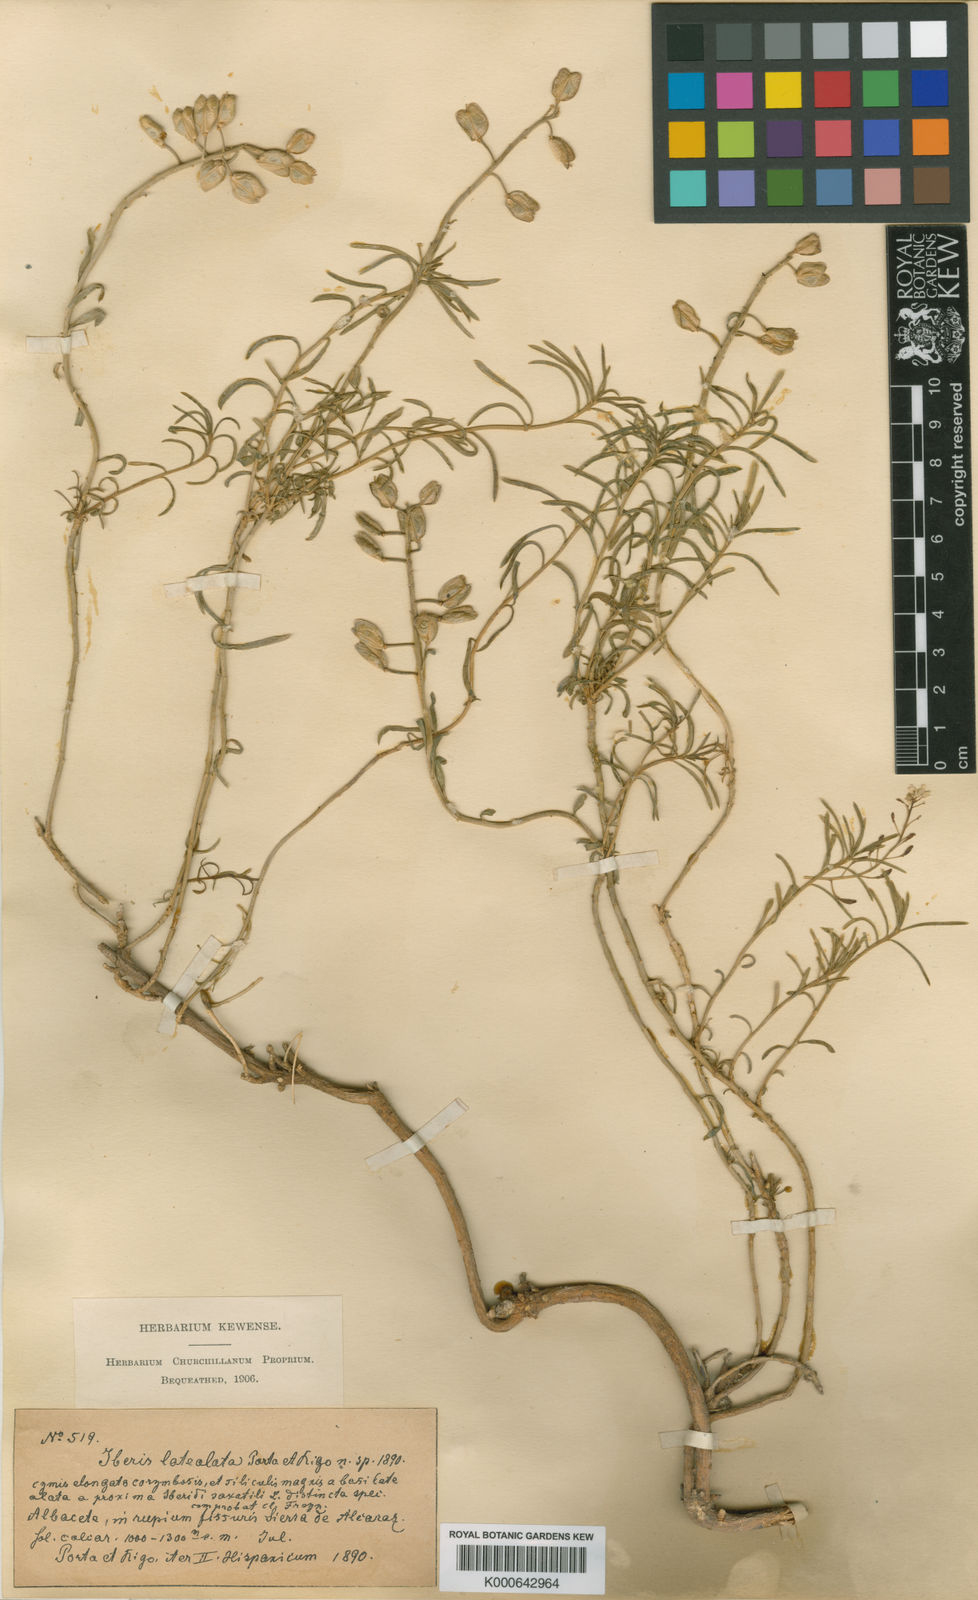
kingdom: Plantae
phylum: Tracheophyta
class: Magnoliopsida
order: Brassicales
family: Brassicaceae
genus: Iberis
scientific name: Iberis saxatilis
